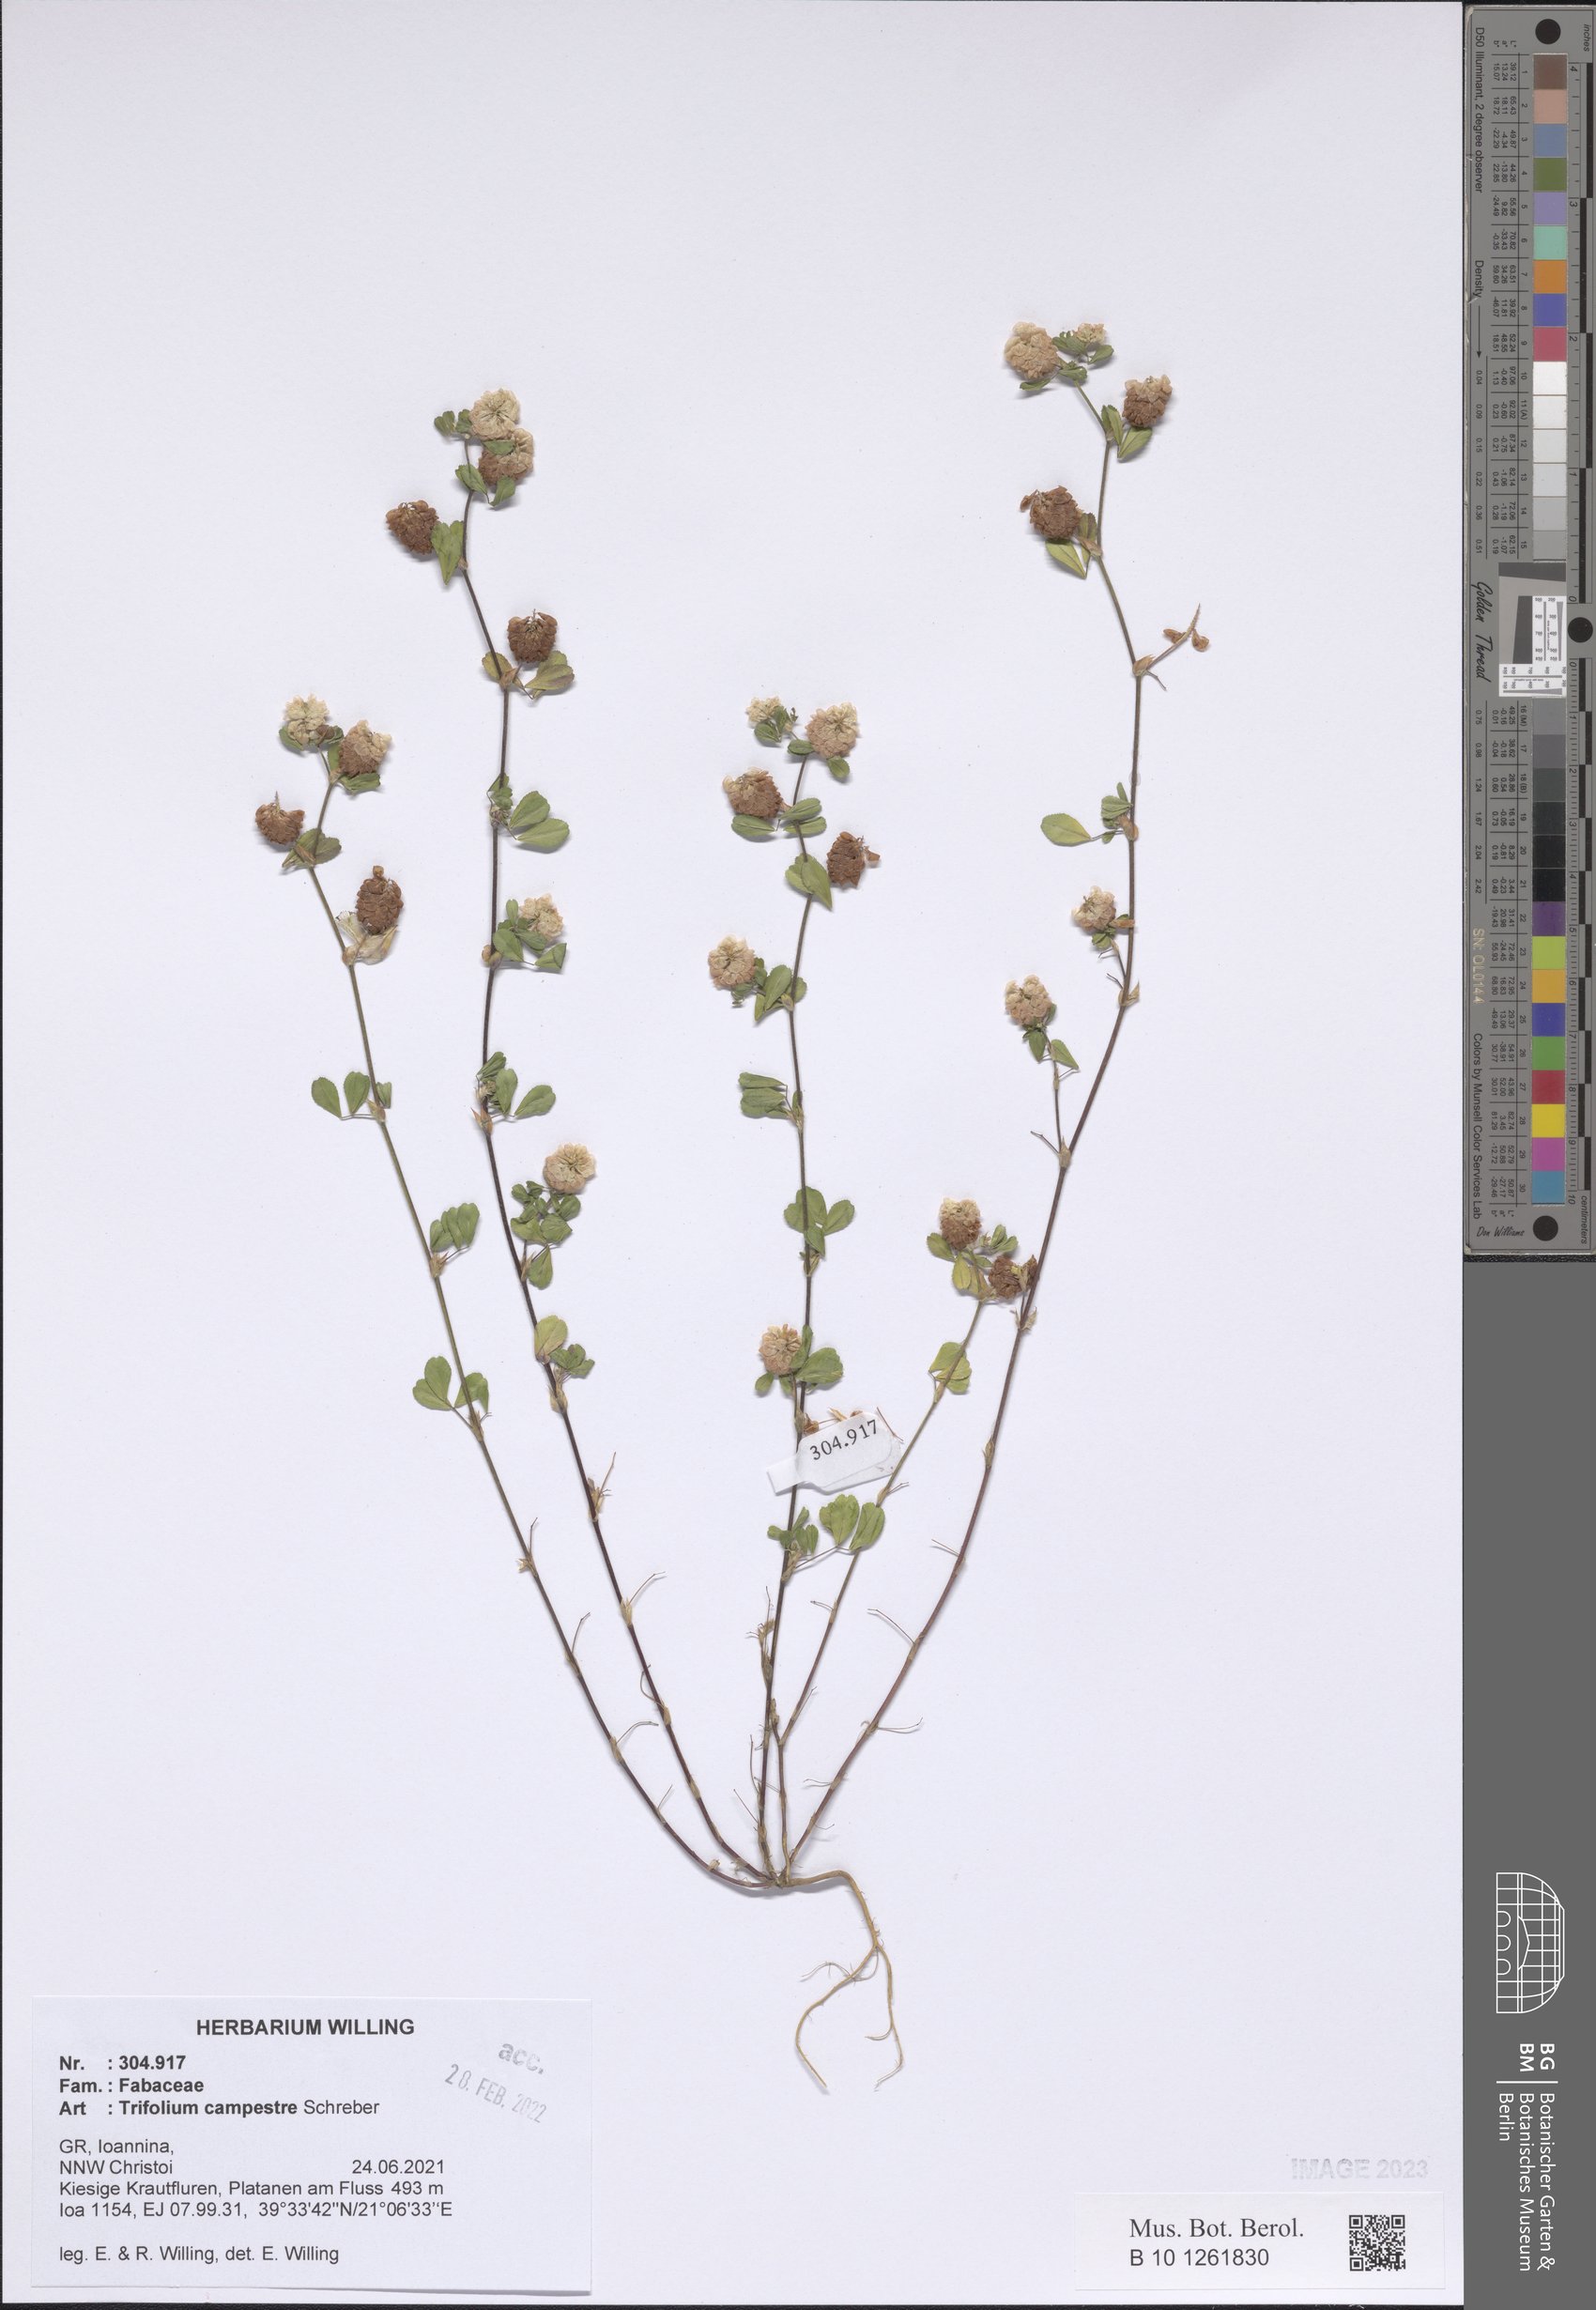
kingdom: Plantae
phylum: Tracheophyta
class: Magnoliopsida
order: Fabales
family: Fabaceae
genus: Trifolium
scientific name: Trifolium campestre
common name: Field clover
